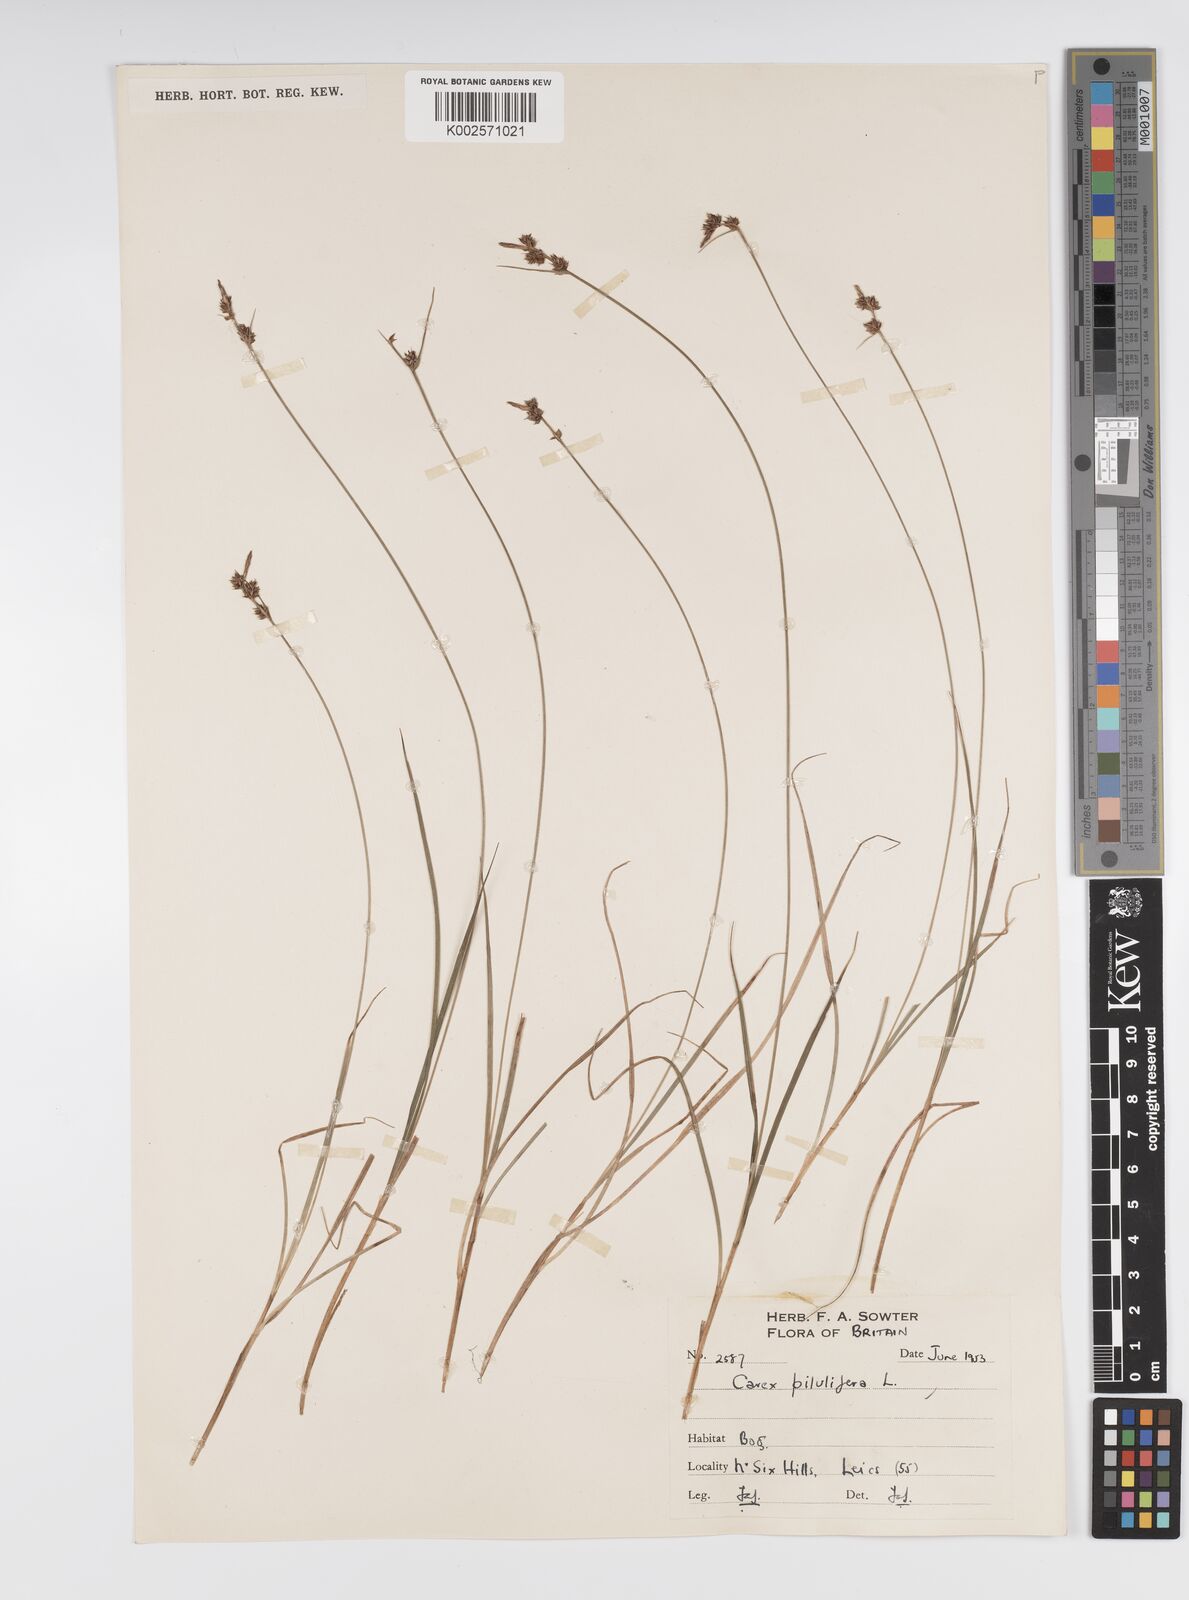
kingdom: Plantae
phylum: Tracheophyta
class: Liliopsida
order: Poales
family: Cyperaceae
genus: Carex
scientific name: Carex praecox
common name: Early sedge
